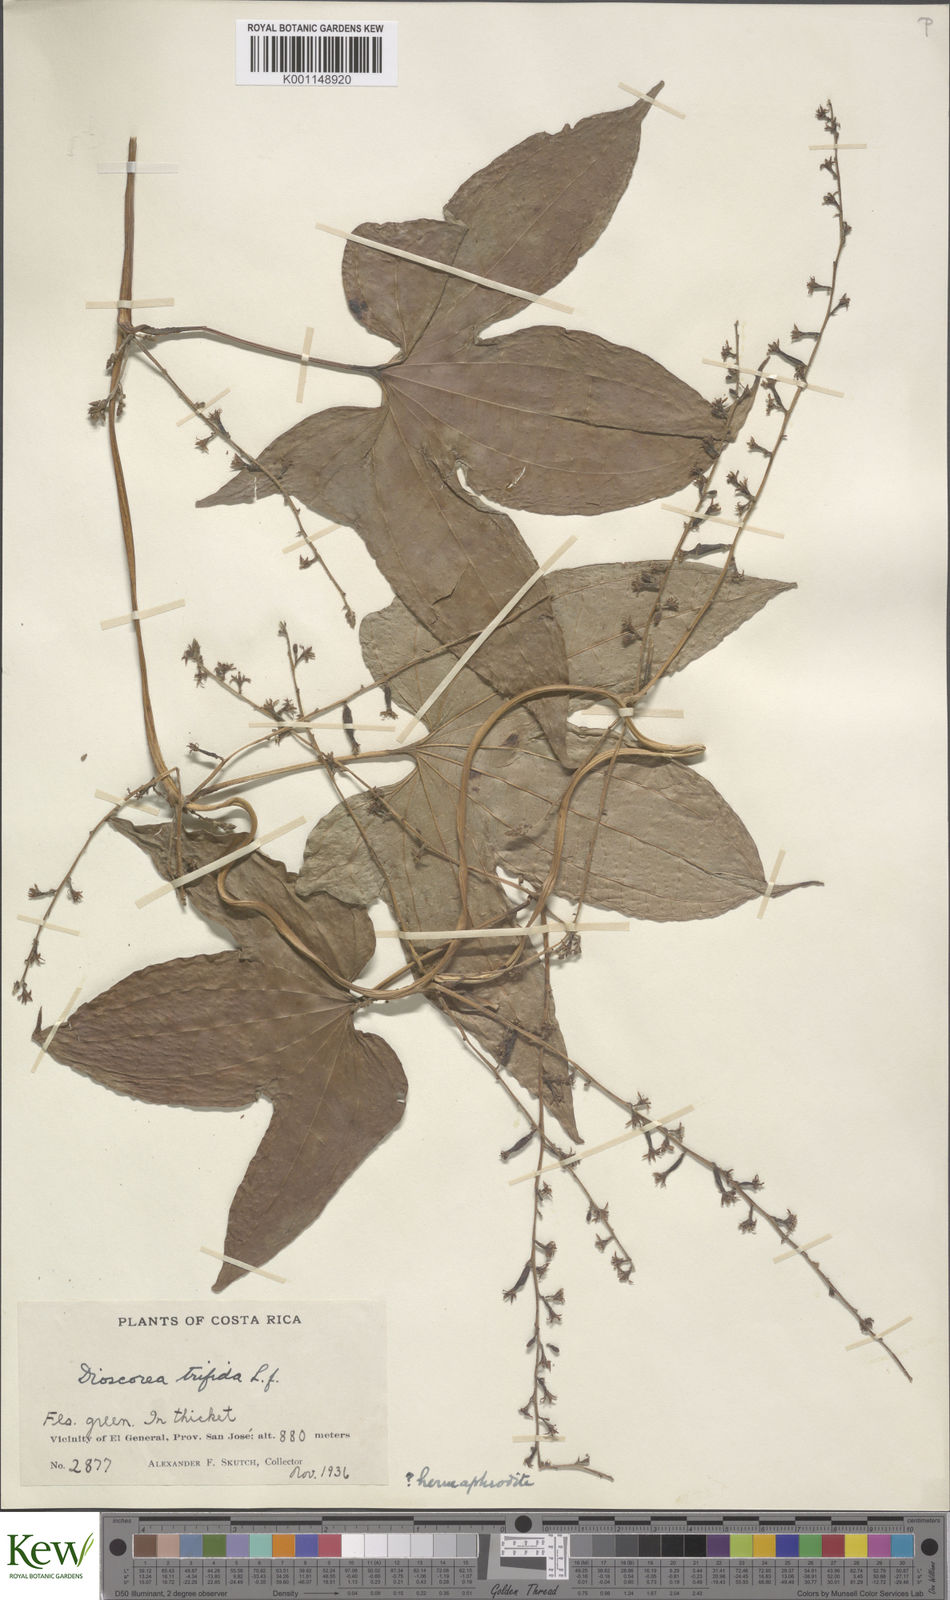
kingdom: Plantae
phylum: Tracheophyta
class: Liliopsida
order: Dioscoreales
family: Dioscoreaceae
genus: Dioscorea
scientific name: Dioscorea trifida
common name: Cush-cush
